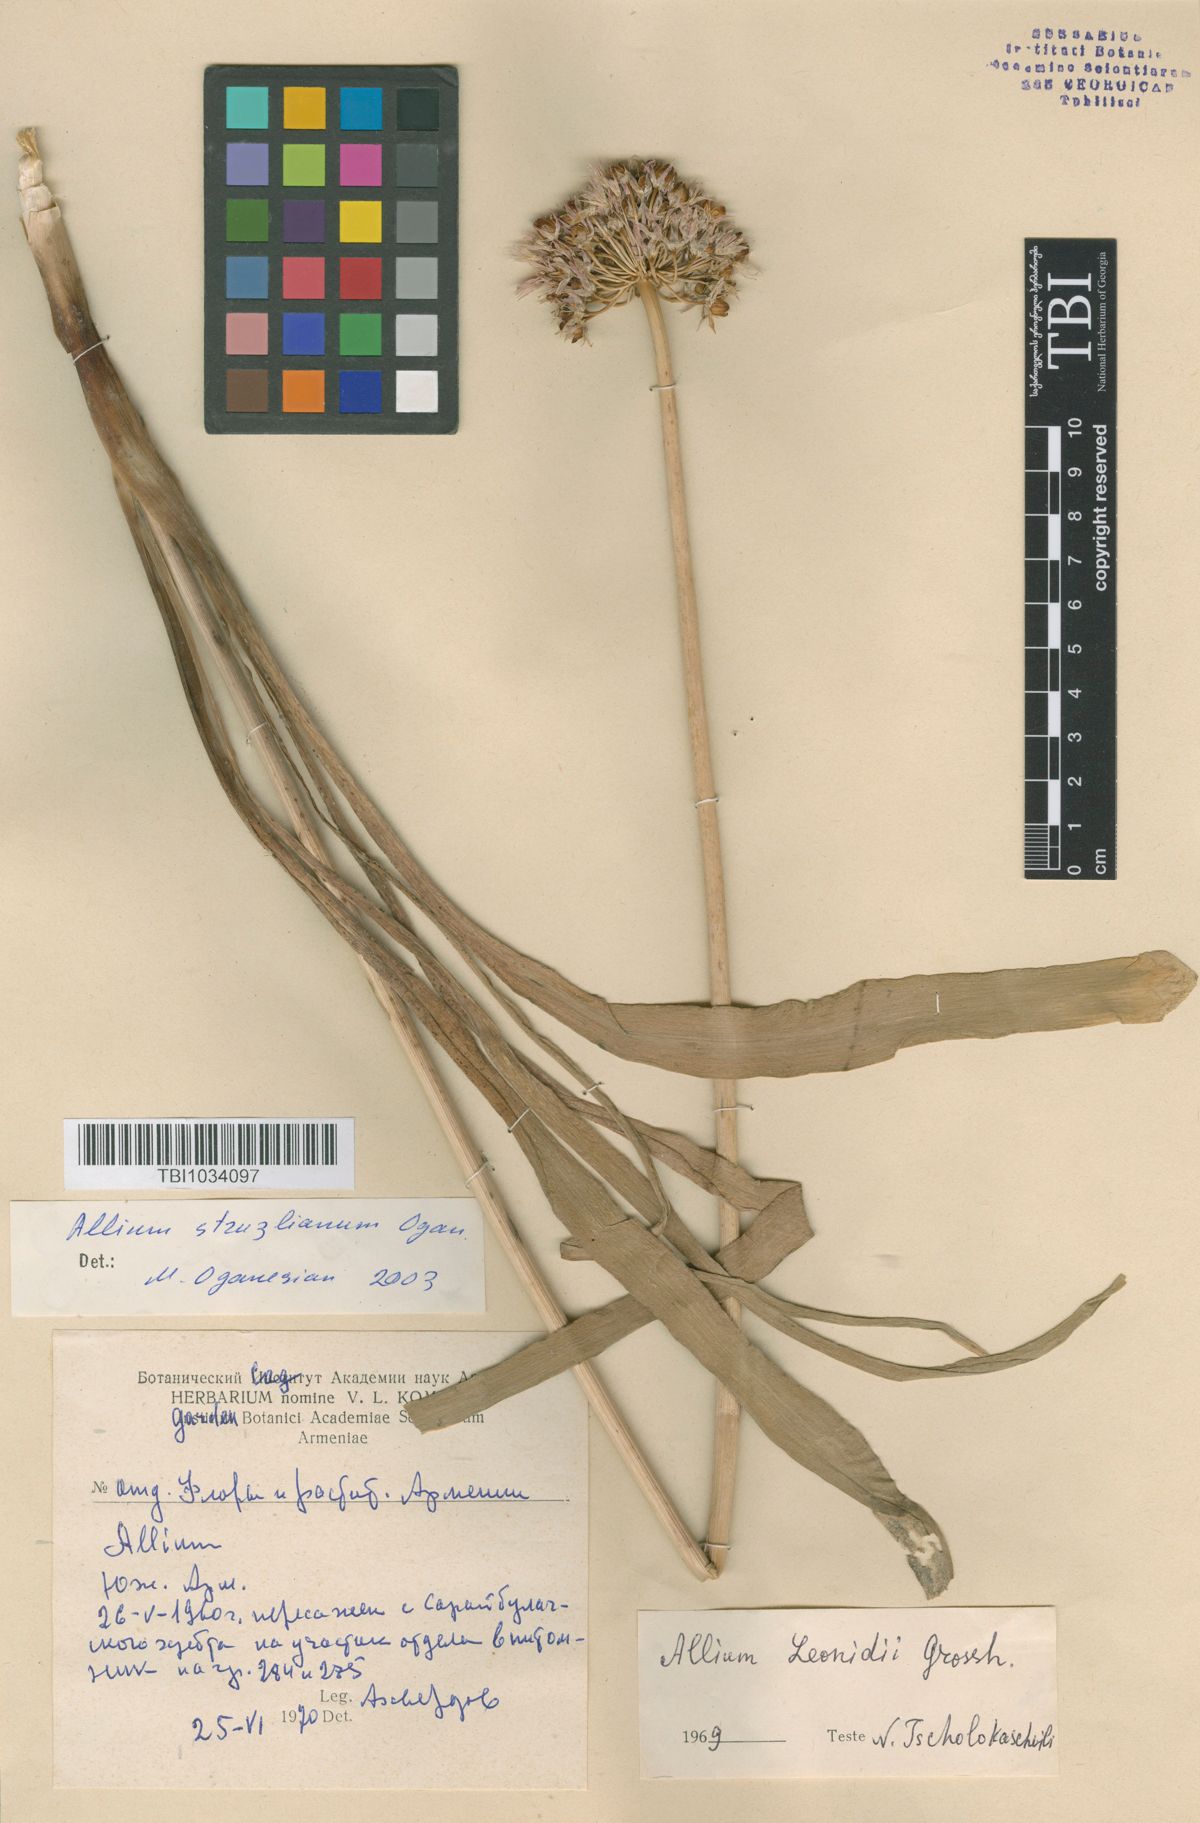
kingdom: Plantae
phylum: Tracheophyta
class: Liliopsida
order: Asparagales
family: Amaryllidaceae
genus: Allium
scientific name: Allium struzlianum
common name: Struzl's onion
